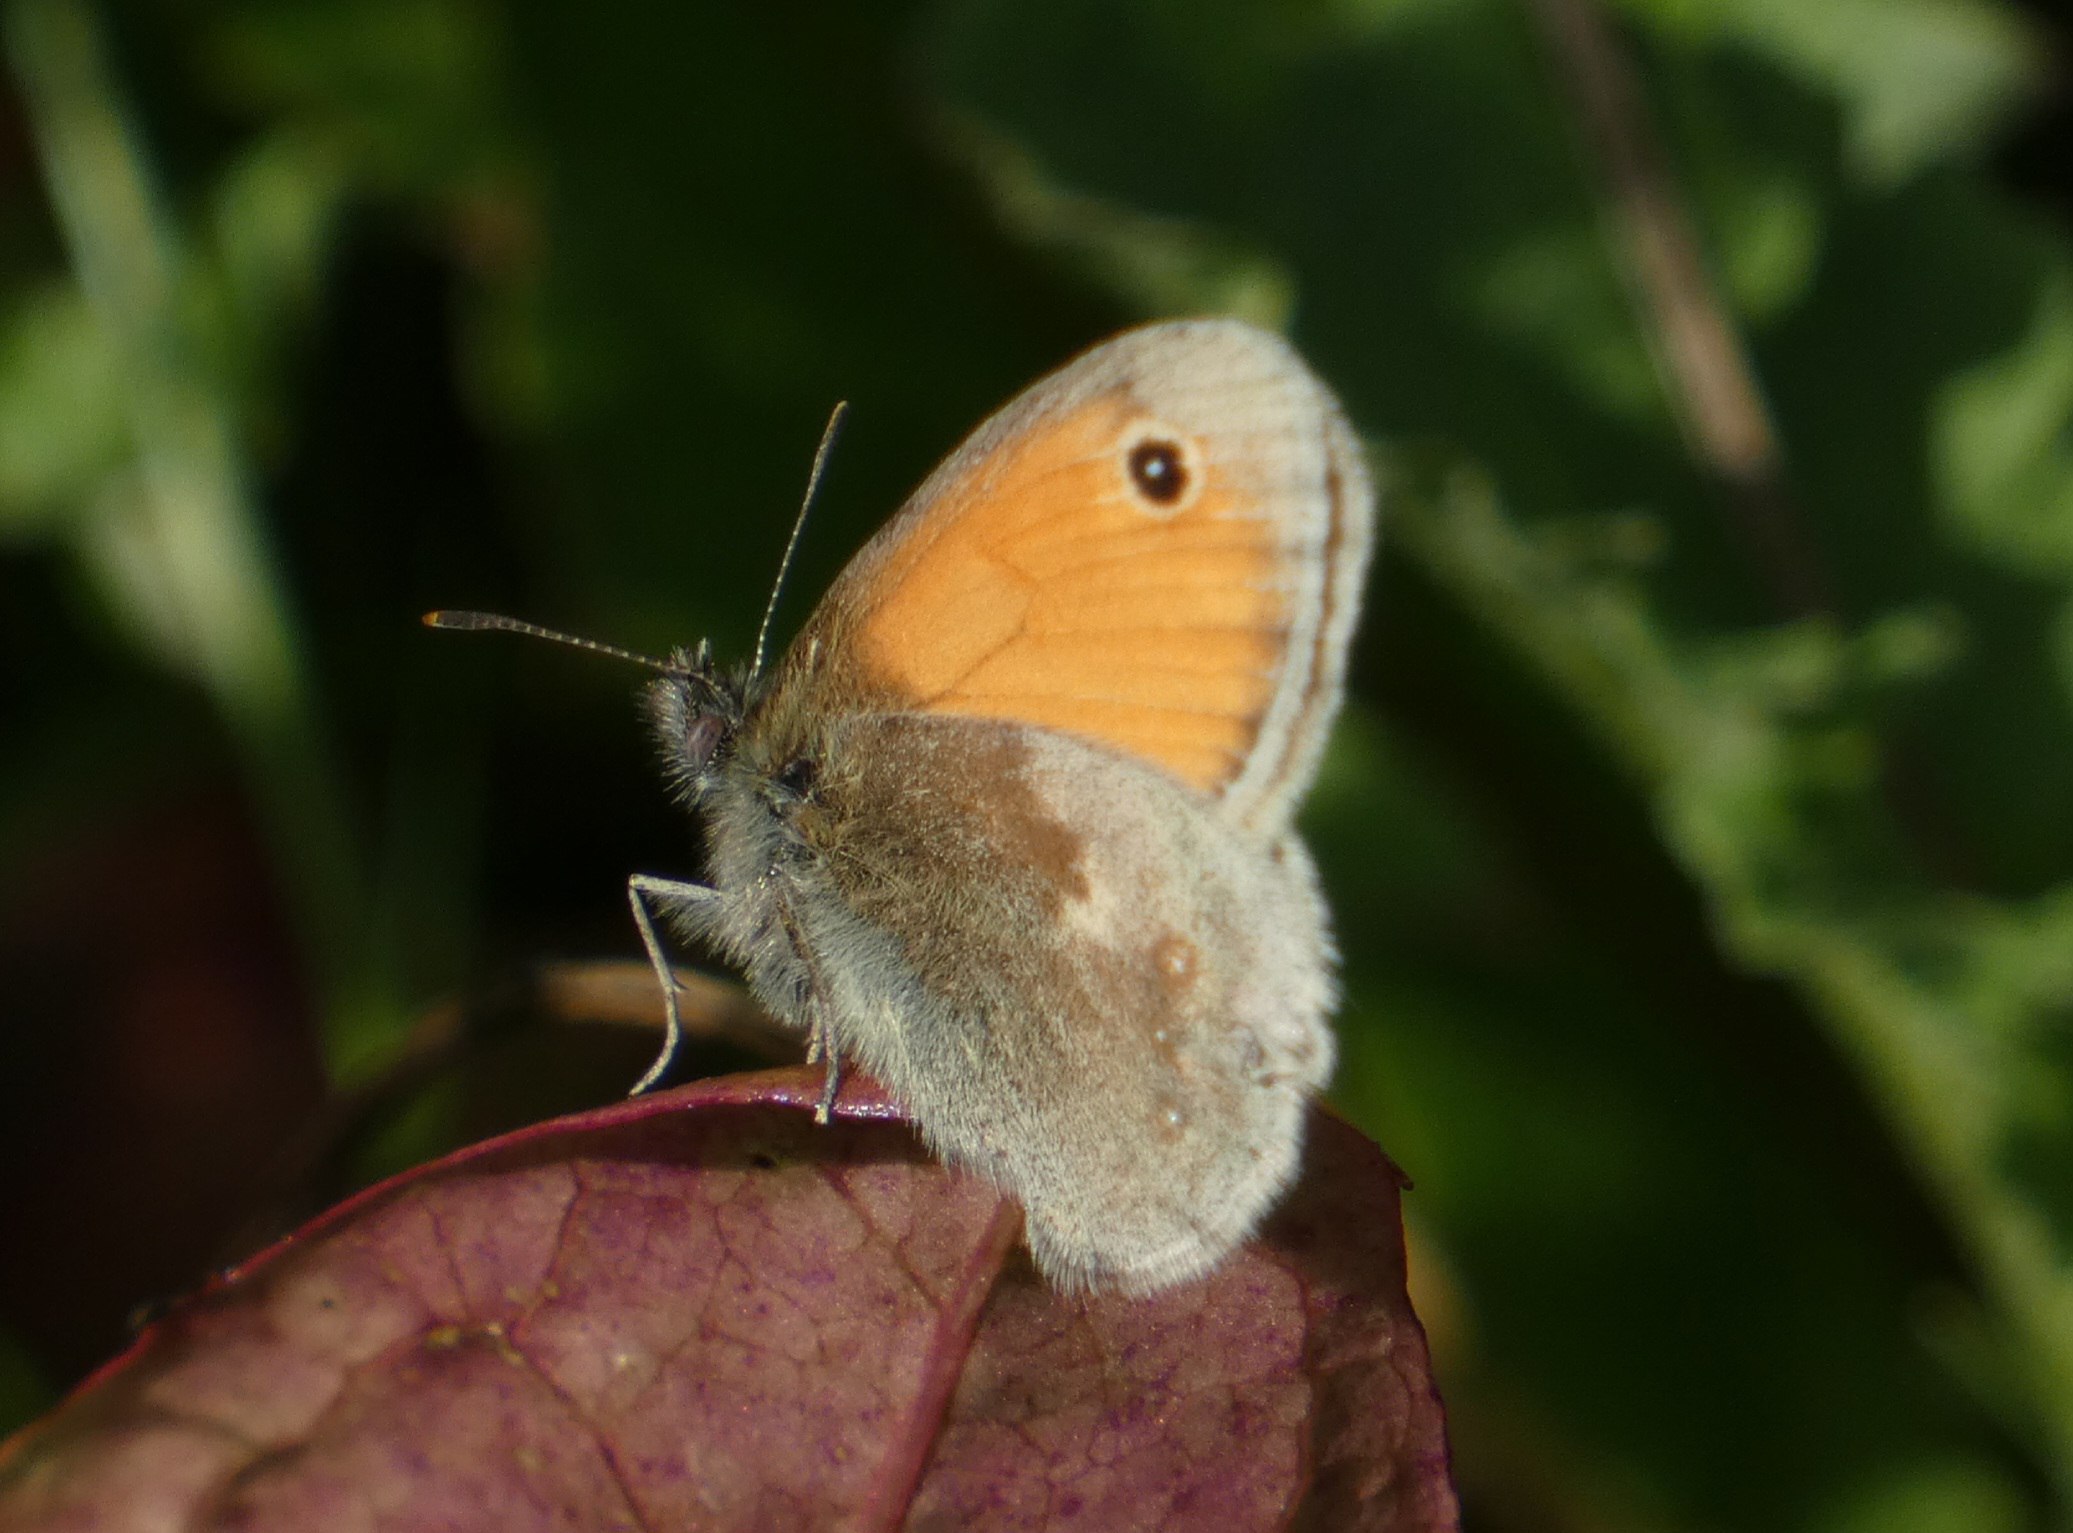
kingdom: Animalia
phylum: Arthropoda
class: Insecta
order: Lepidoptera
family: Nymphalidae
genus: Coenonympha
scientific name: Coenonympha pamphilus
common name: Okkergul randøje
